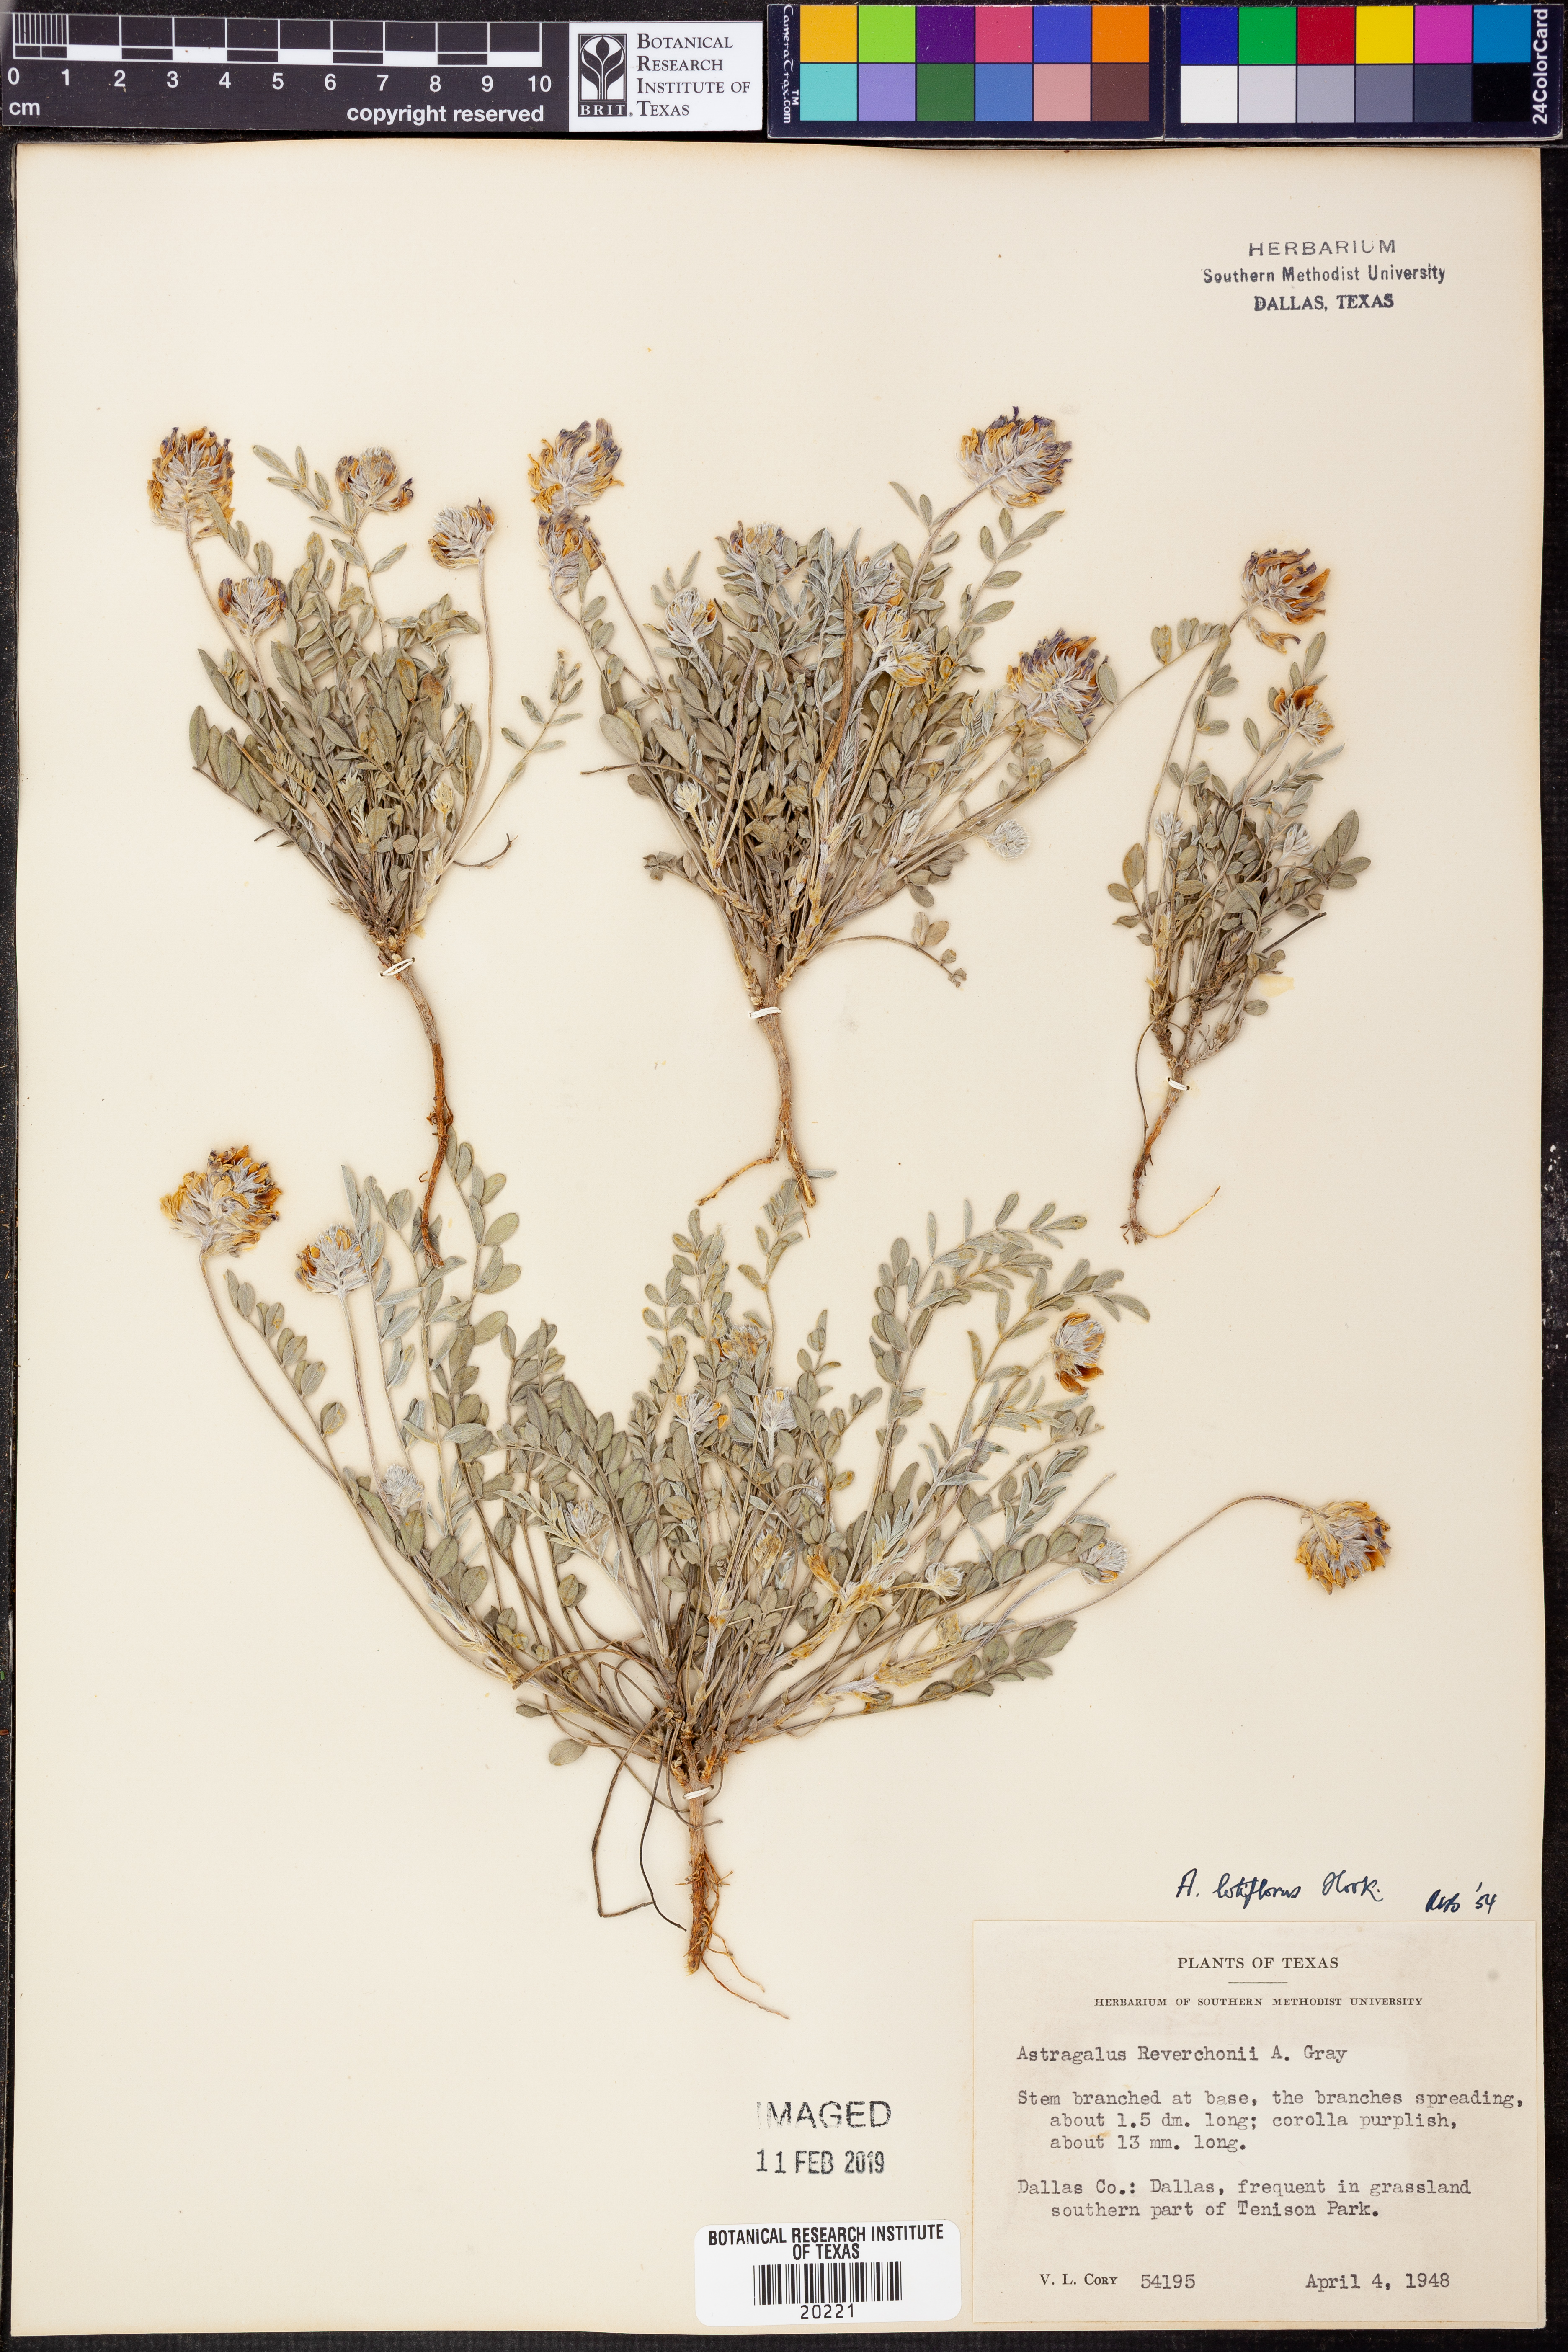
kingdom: Plantae
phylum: Tracheophyta
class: Magnoliopsida
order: Fabales
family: Fabaceae
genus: Astragalus
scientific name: Astragalus lotiflorus
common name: Lotus milk-vetch
